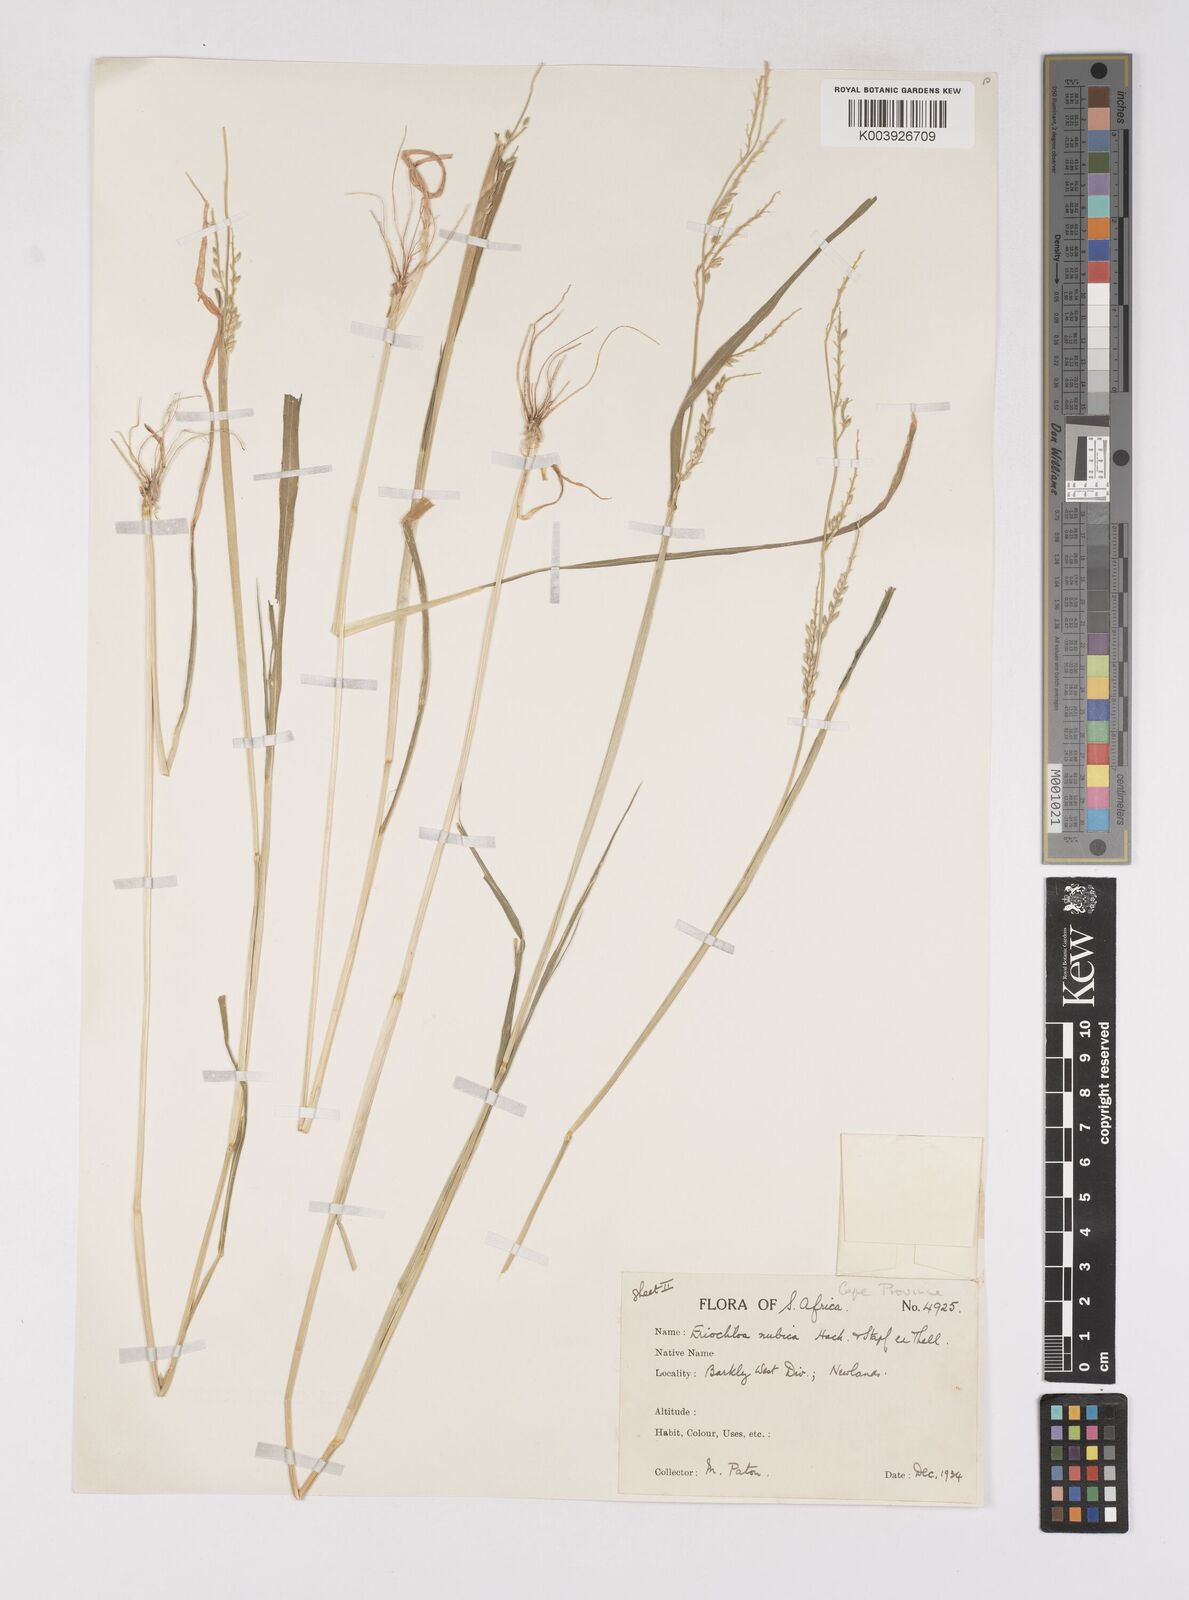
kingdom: Plantae
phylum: Tracheophyta
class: Liliopsida
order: Poales
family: Poaceae
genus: Eriochloa
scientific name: Eriochloa barbatus
